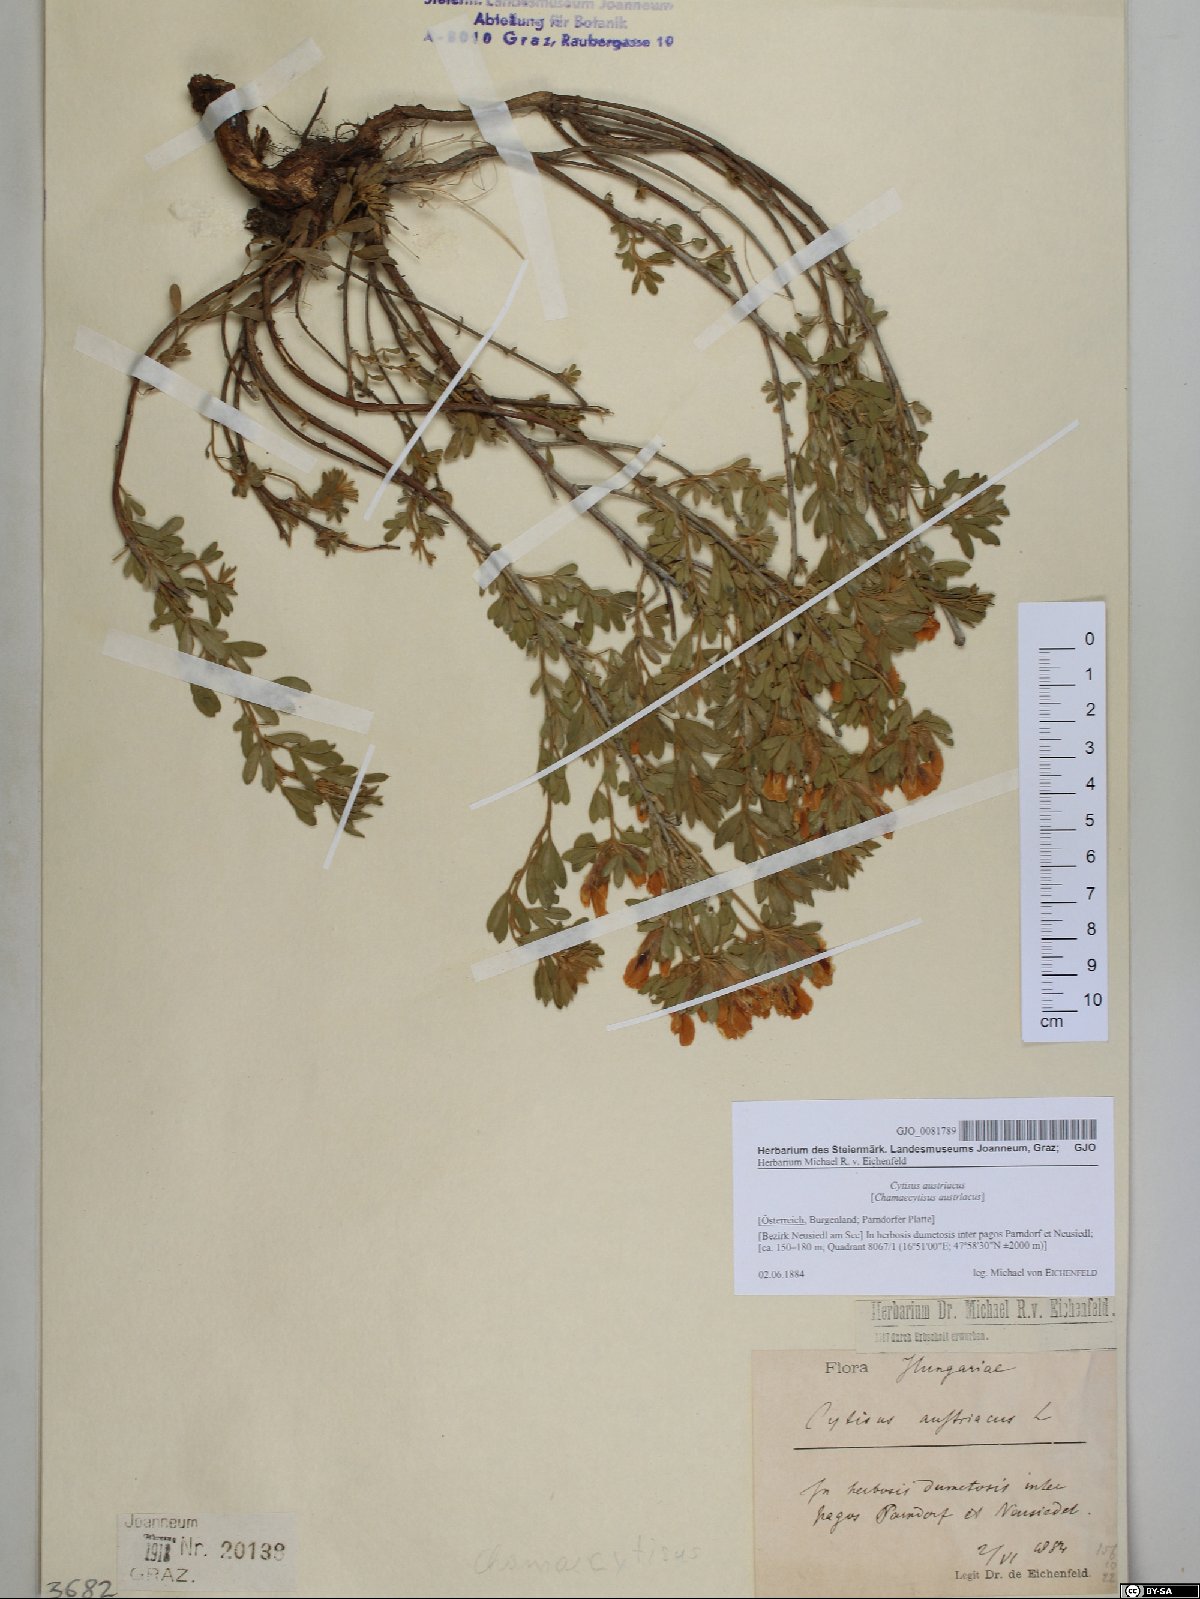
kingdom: Plantae
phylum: Tracheophyta
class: Magnoliopsida
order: Fabales
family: Fabaceae
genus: Chamaecytisus
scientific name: Chamaecytisus austriacus
